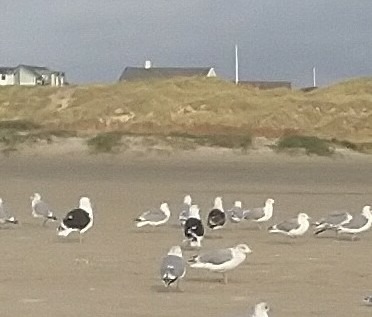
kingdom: Animalia
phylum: Chordata
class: Aves
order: Charadriiformes
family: Laridae
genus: Larus
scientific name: Larus marinus
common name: Svartbag
